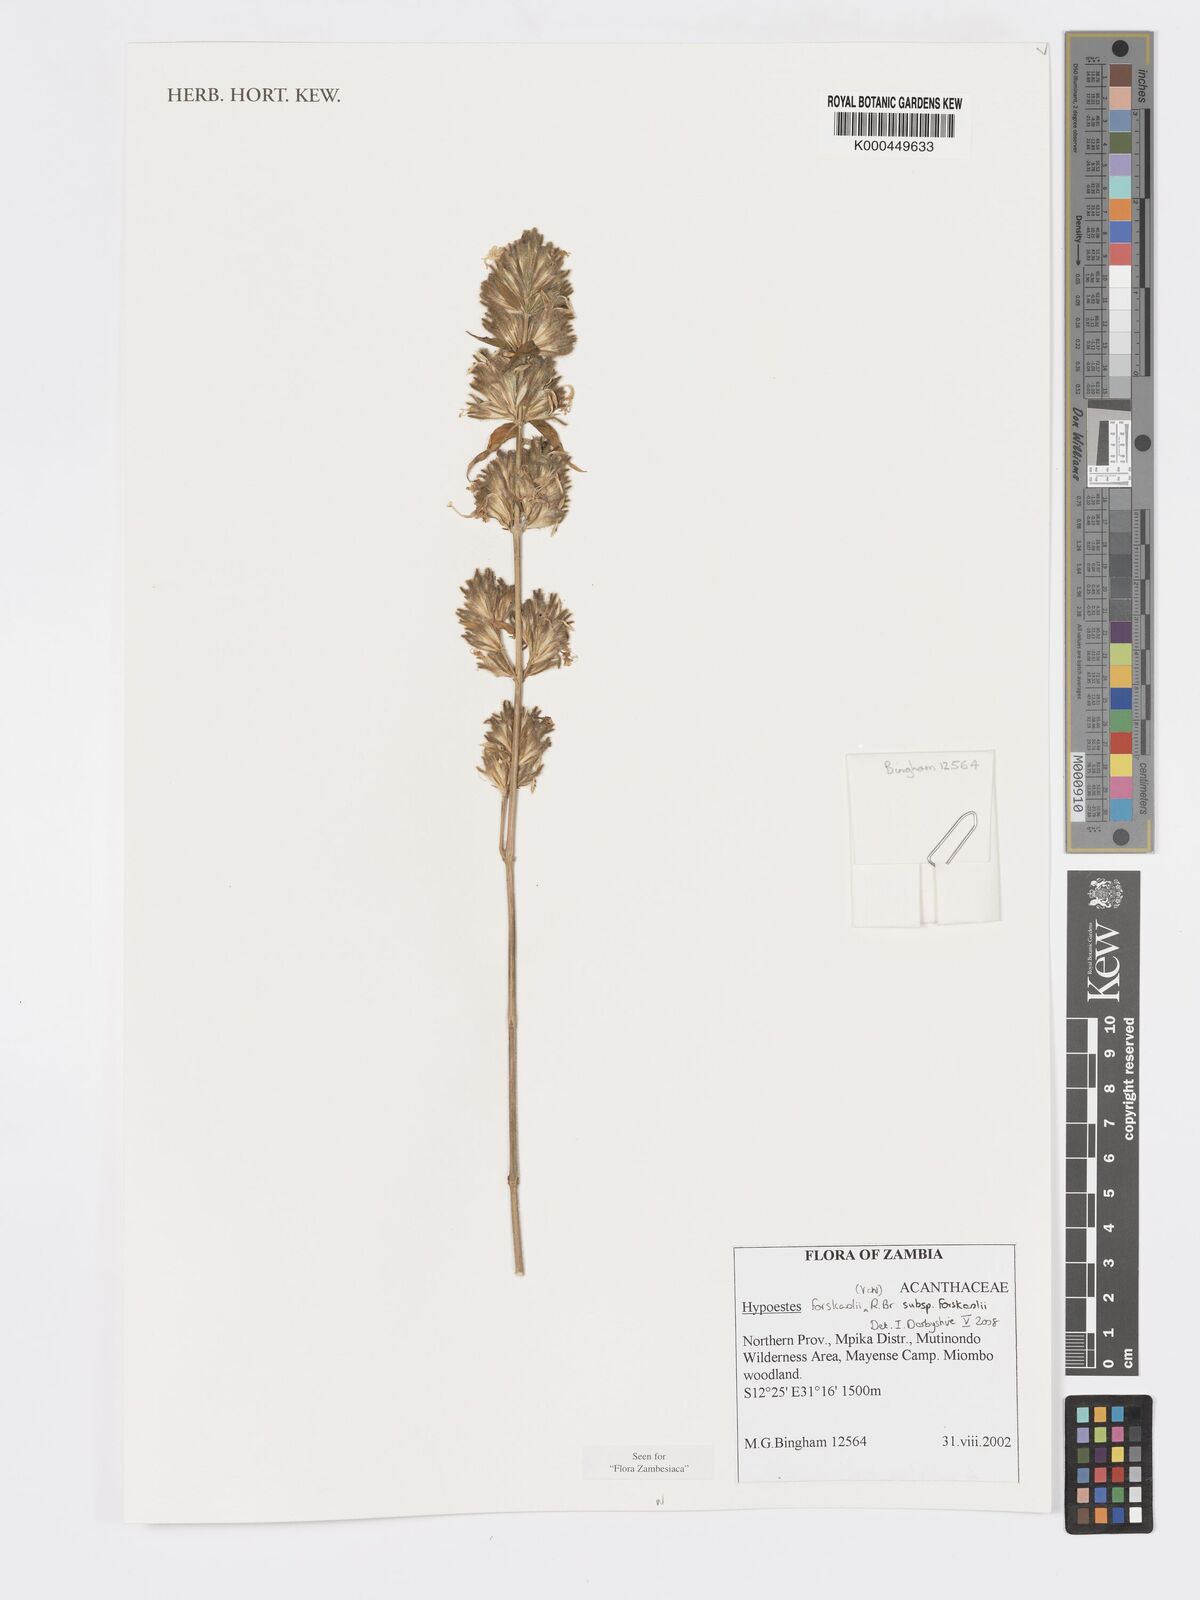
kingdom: Plantae
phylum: Tracheophyta
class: Magnoliopsida
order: Lamiales
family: Acanthaceae
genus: Hypoestes
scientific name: Hypoestes forskaolii
